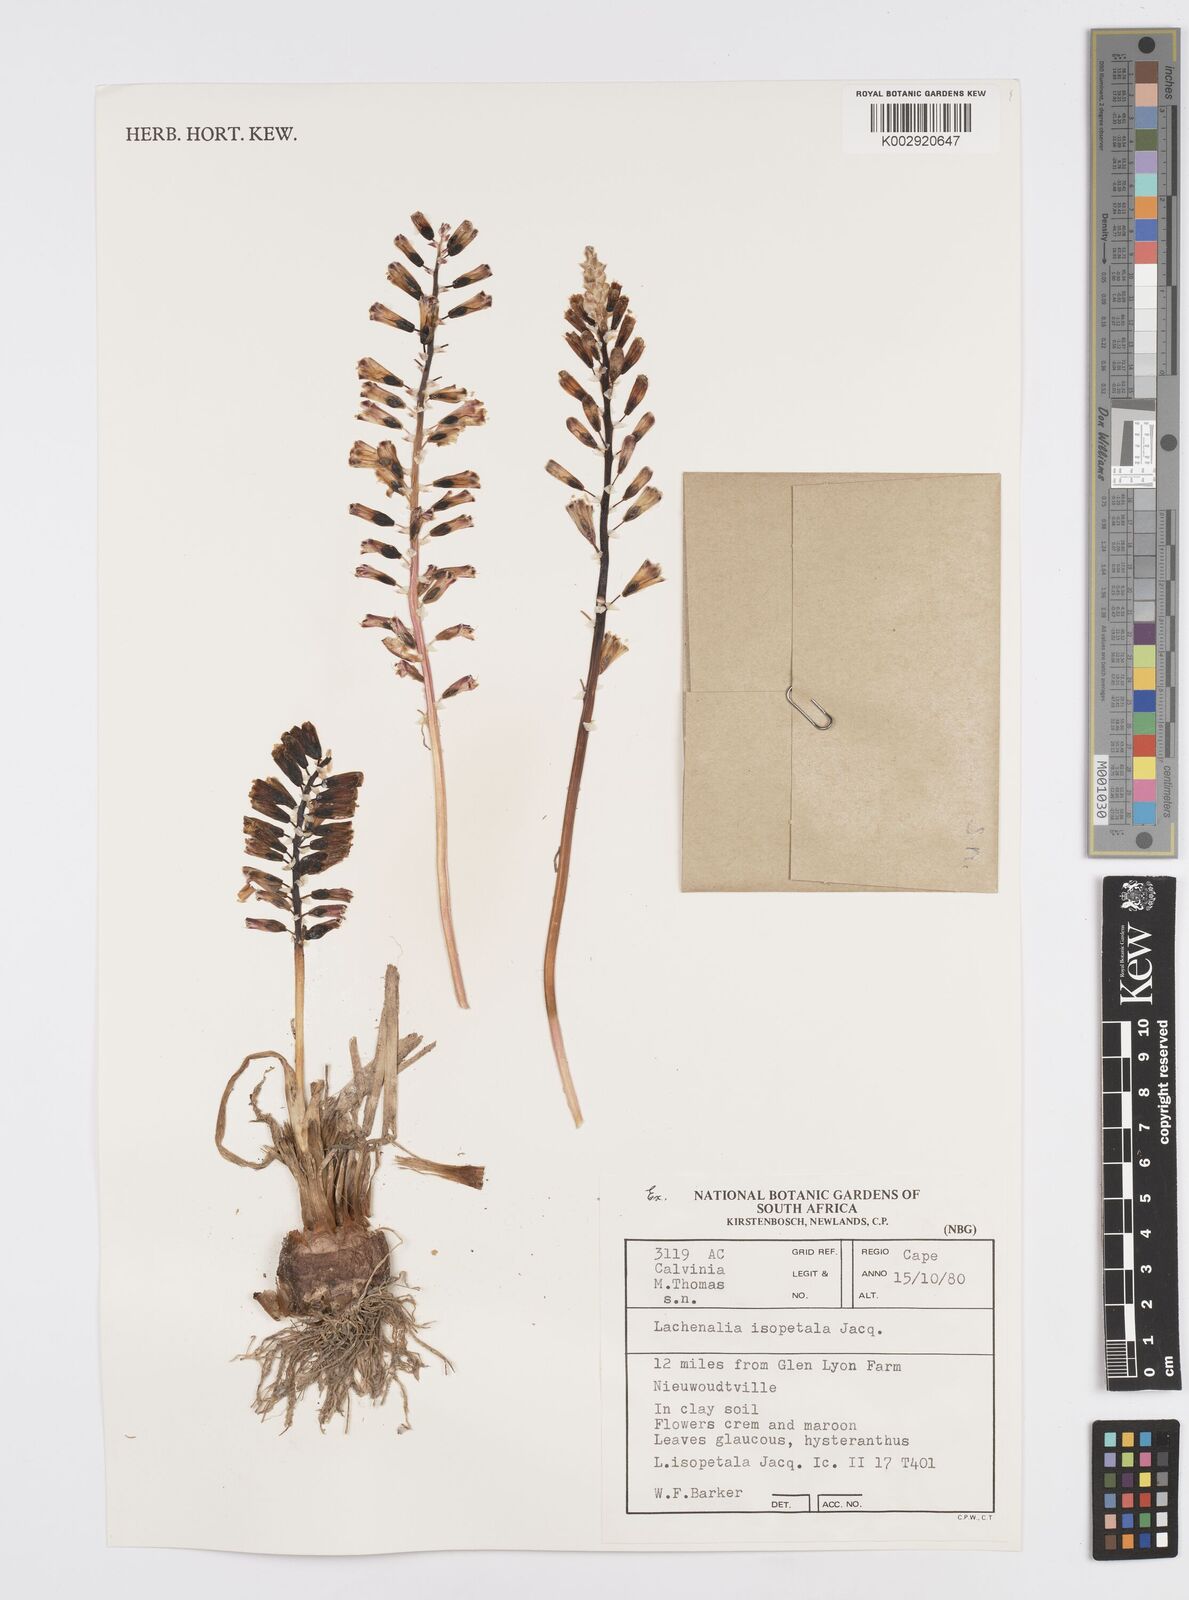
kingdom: Plantae
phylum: Tracheophyta
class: Liliopsida
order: Asparagales
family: Asparagaceae
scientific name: Asparagaceae
